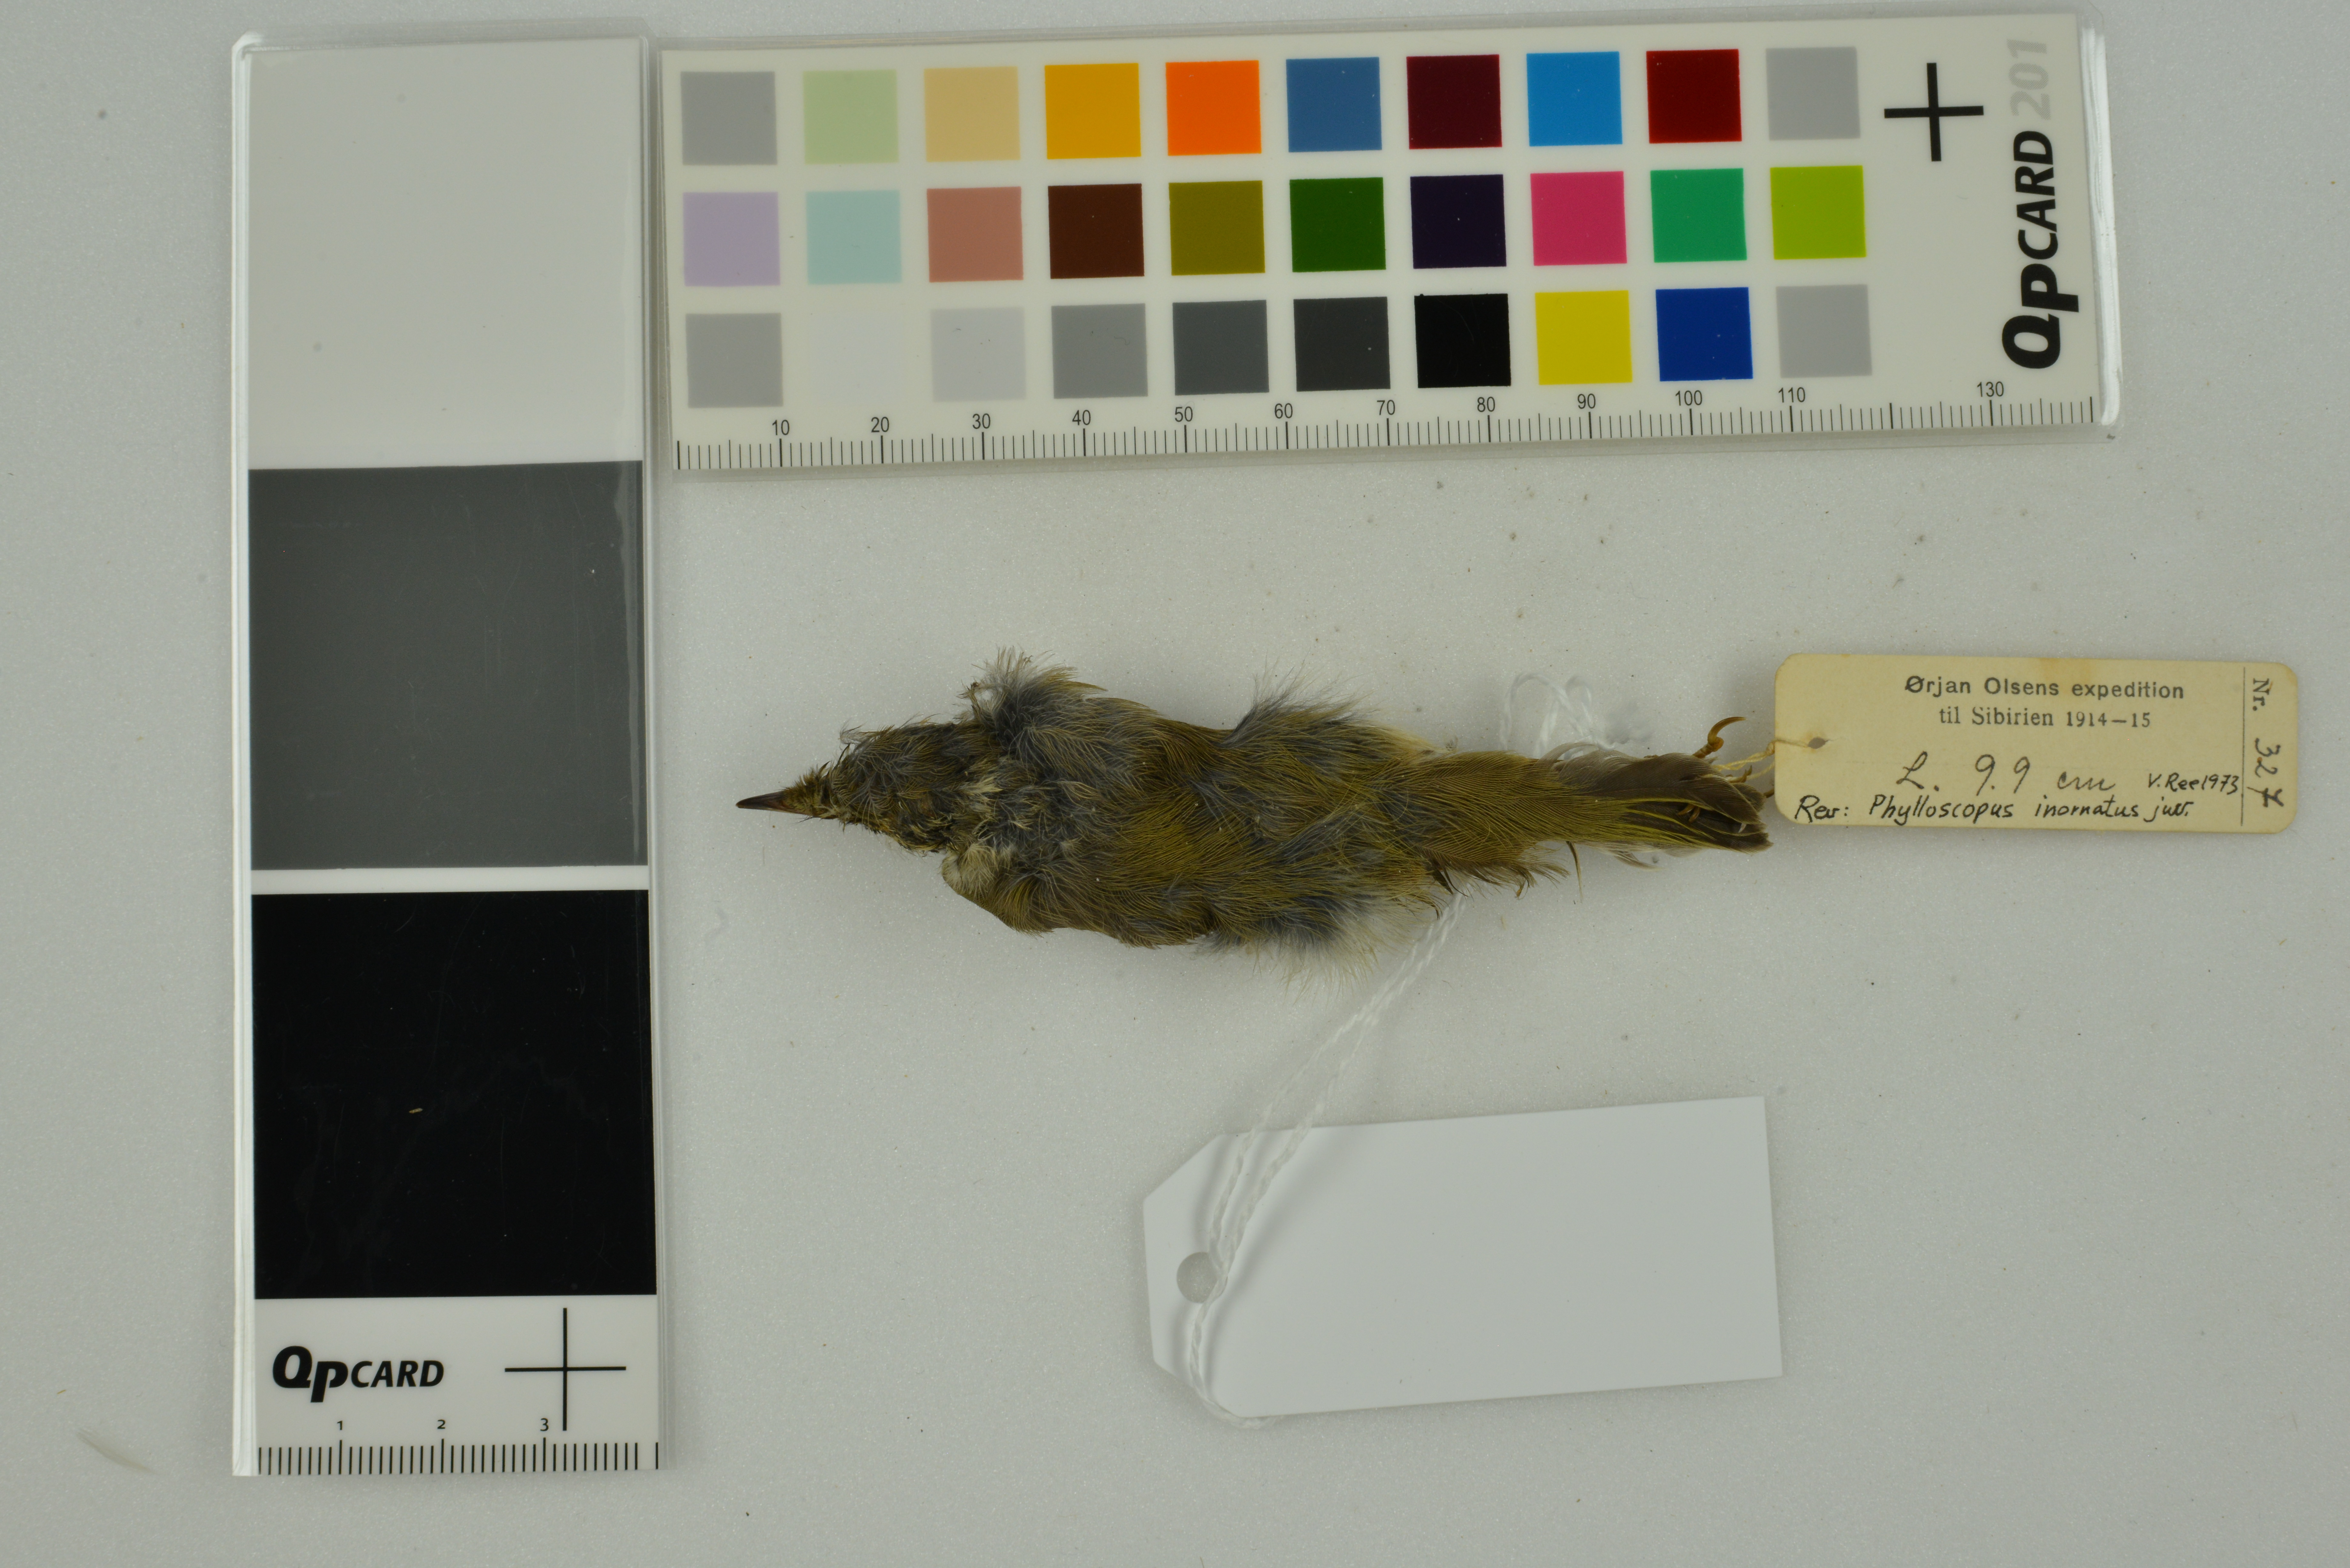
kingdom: Animalia
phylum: Chordata
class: Aves
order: Passeriformes
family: Phylloscopidae
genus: Phylloscopus
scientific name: Phylloscopus inornatus
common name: Yellow-browed warbler
